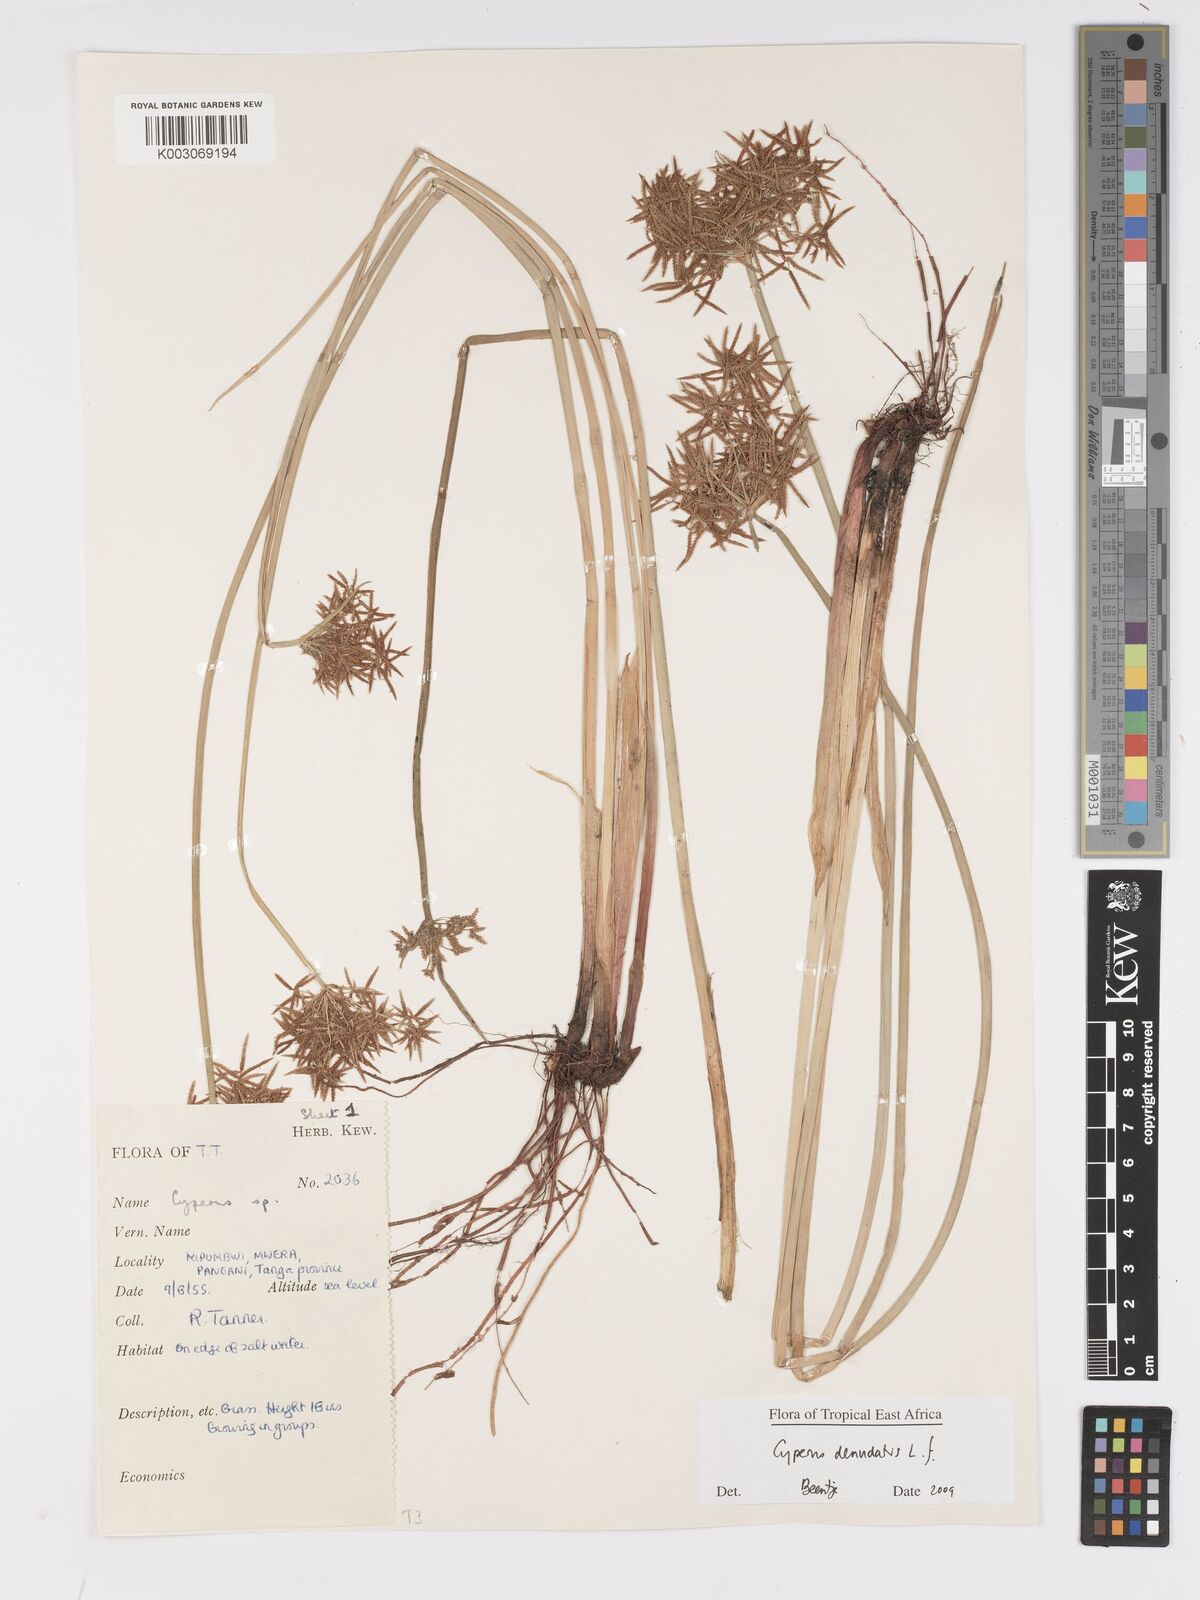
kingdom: Plantae
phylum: Tracheophyta
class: Liliopsida
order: Poales
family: Cyperaceae
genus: Cyperus
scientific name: Cyperus denudatus
